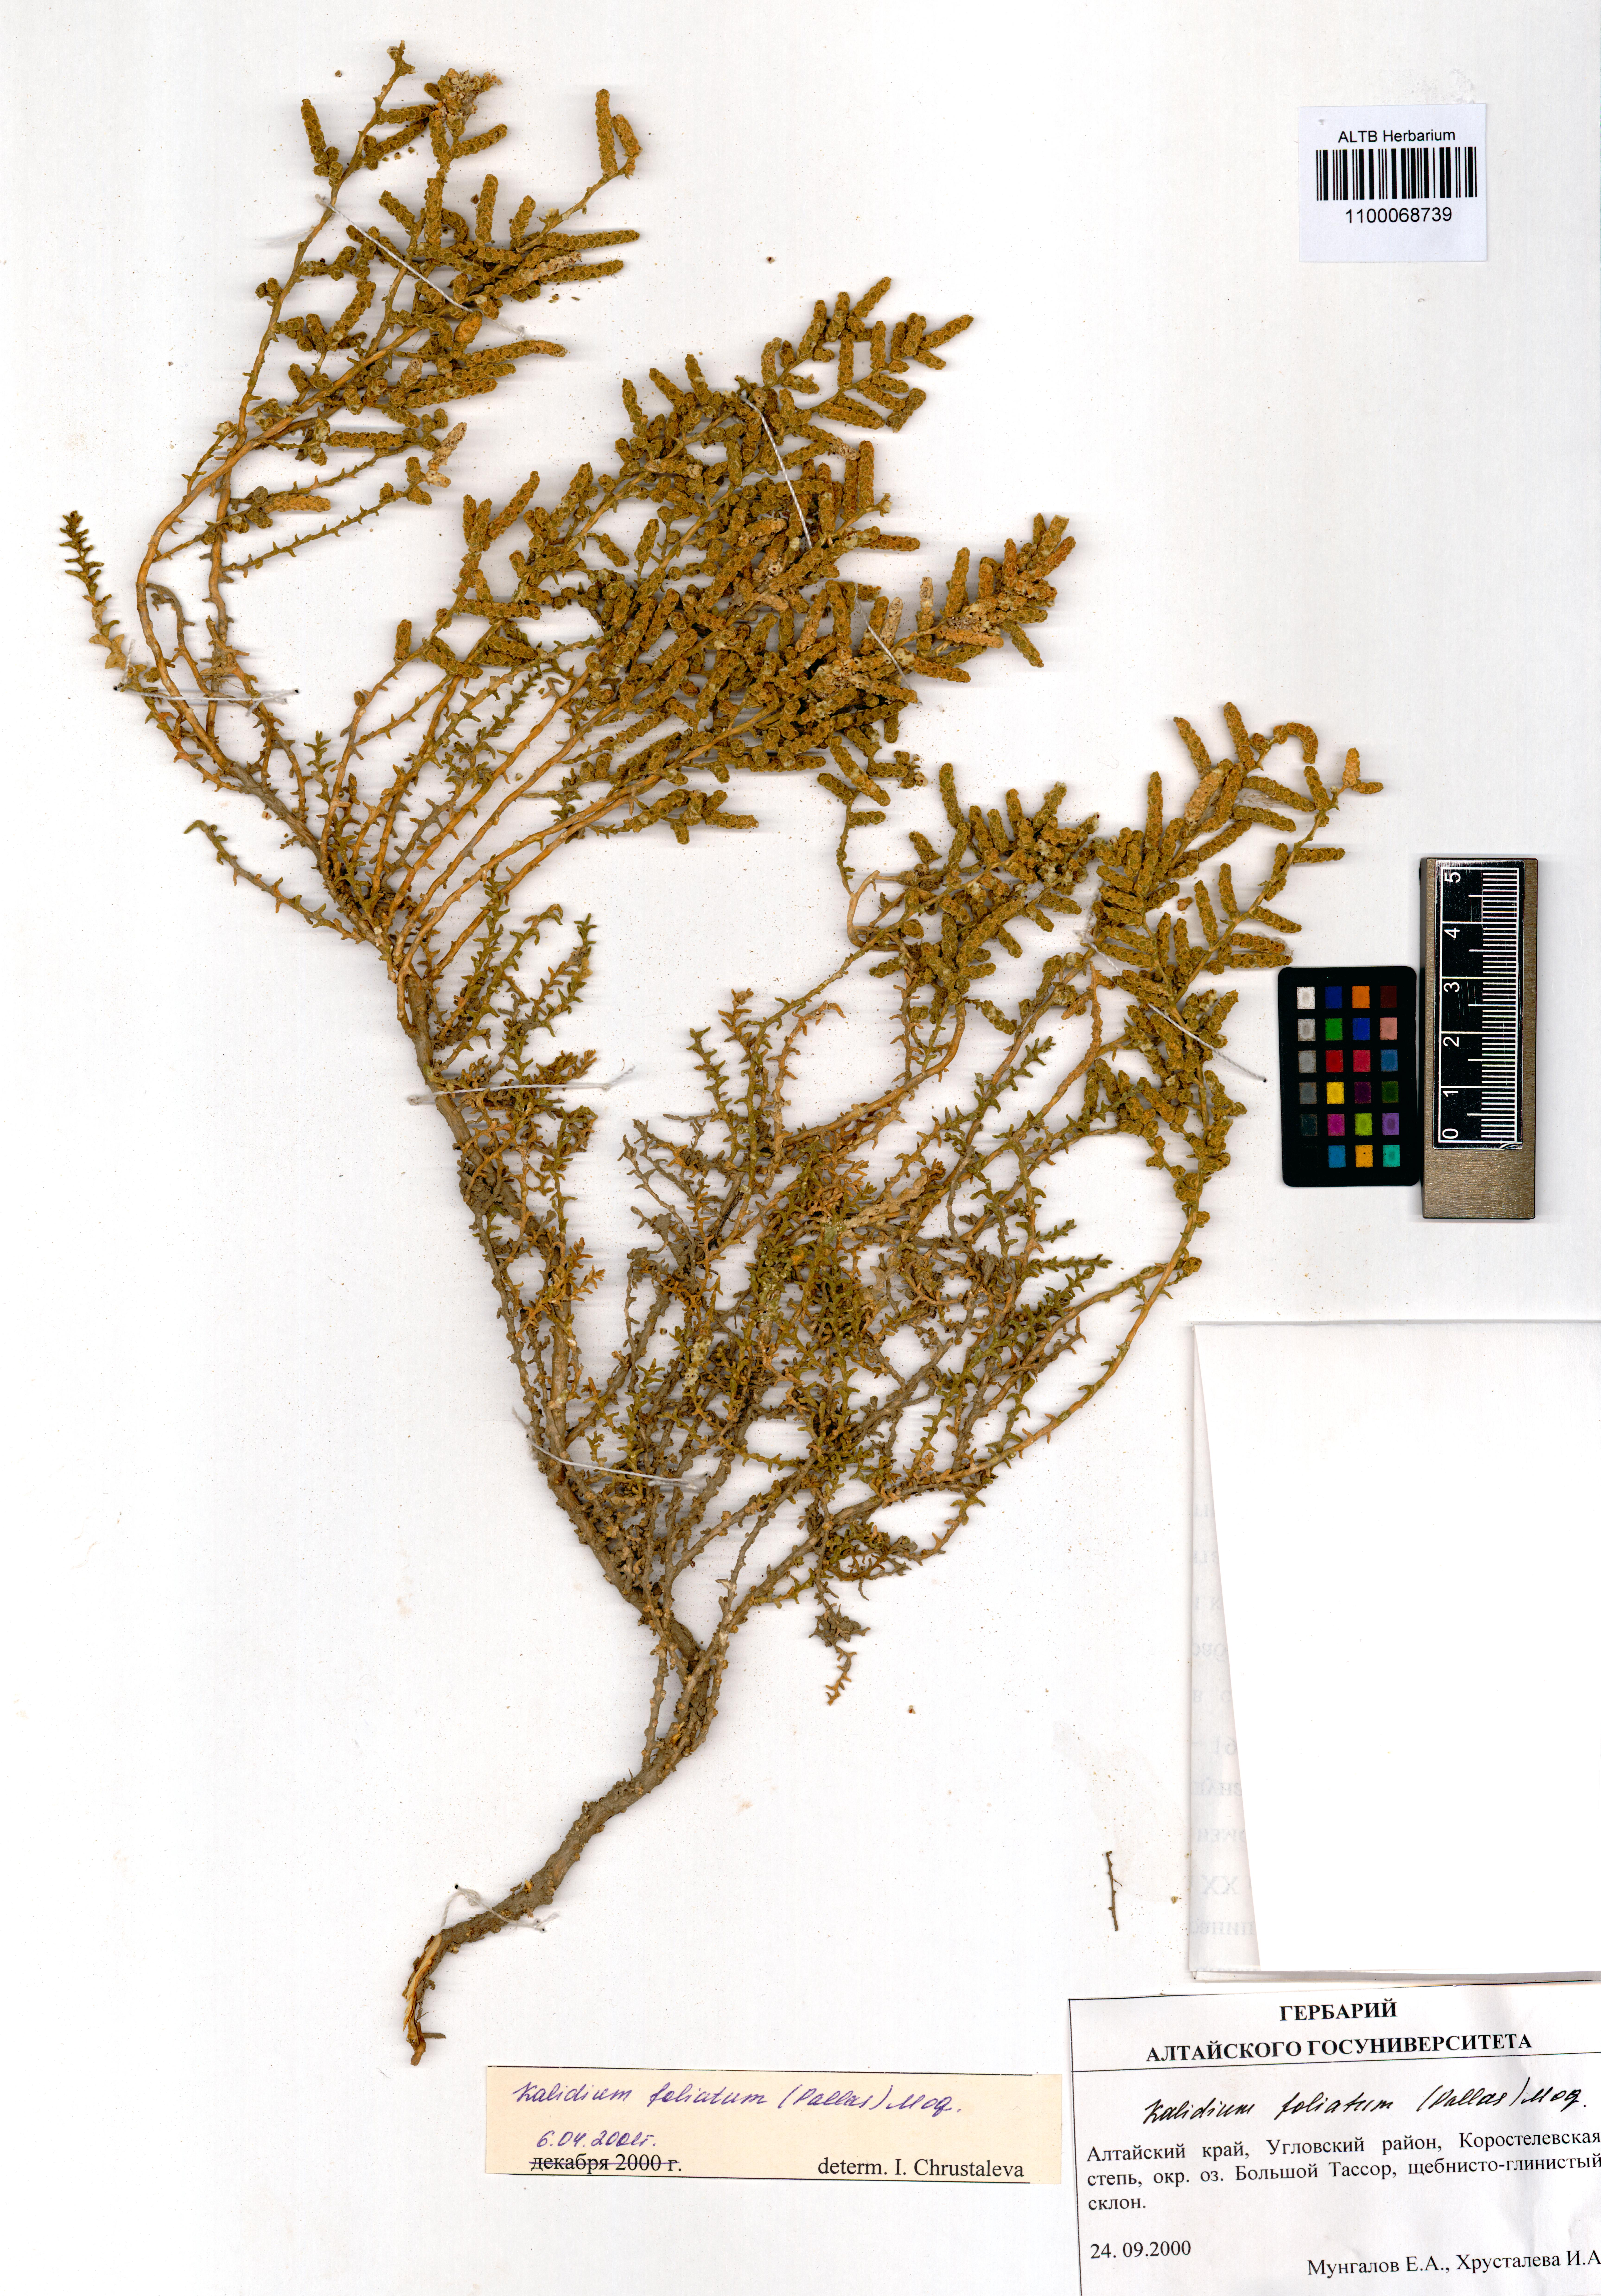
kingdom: Plantae
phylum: Tracheophyta
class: Magnoliopsida
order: Caryophyllales
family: Amaranthaceae
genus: Kalidium
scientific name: Kalidium foliatum
